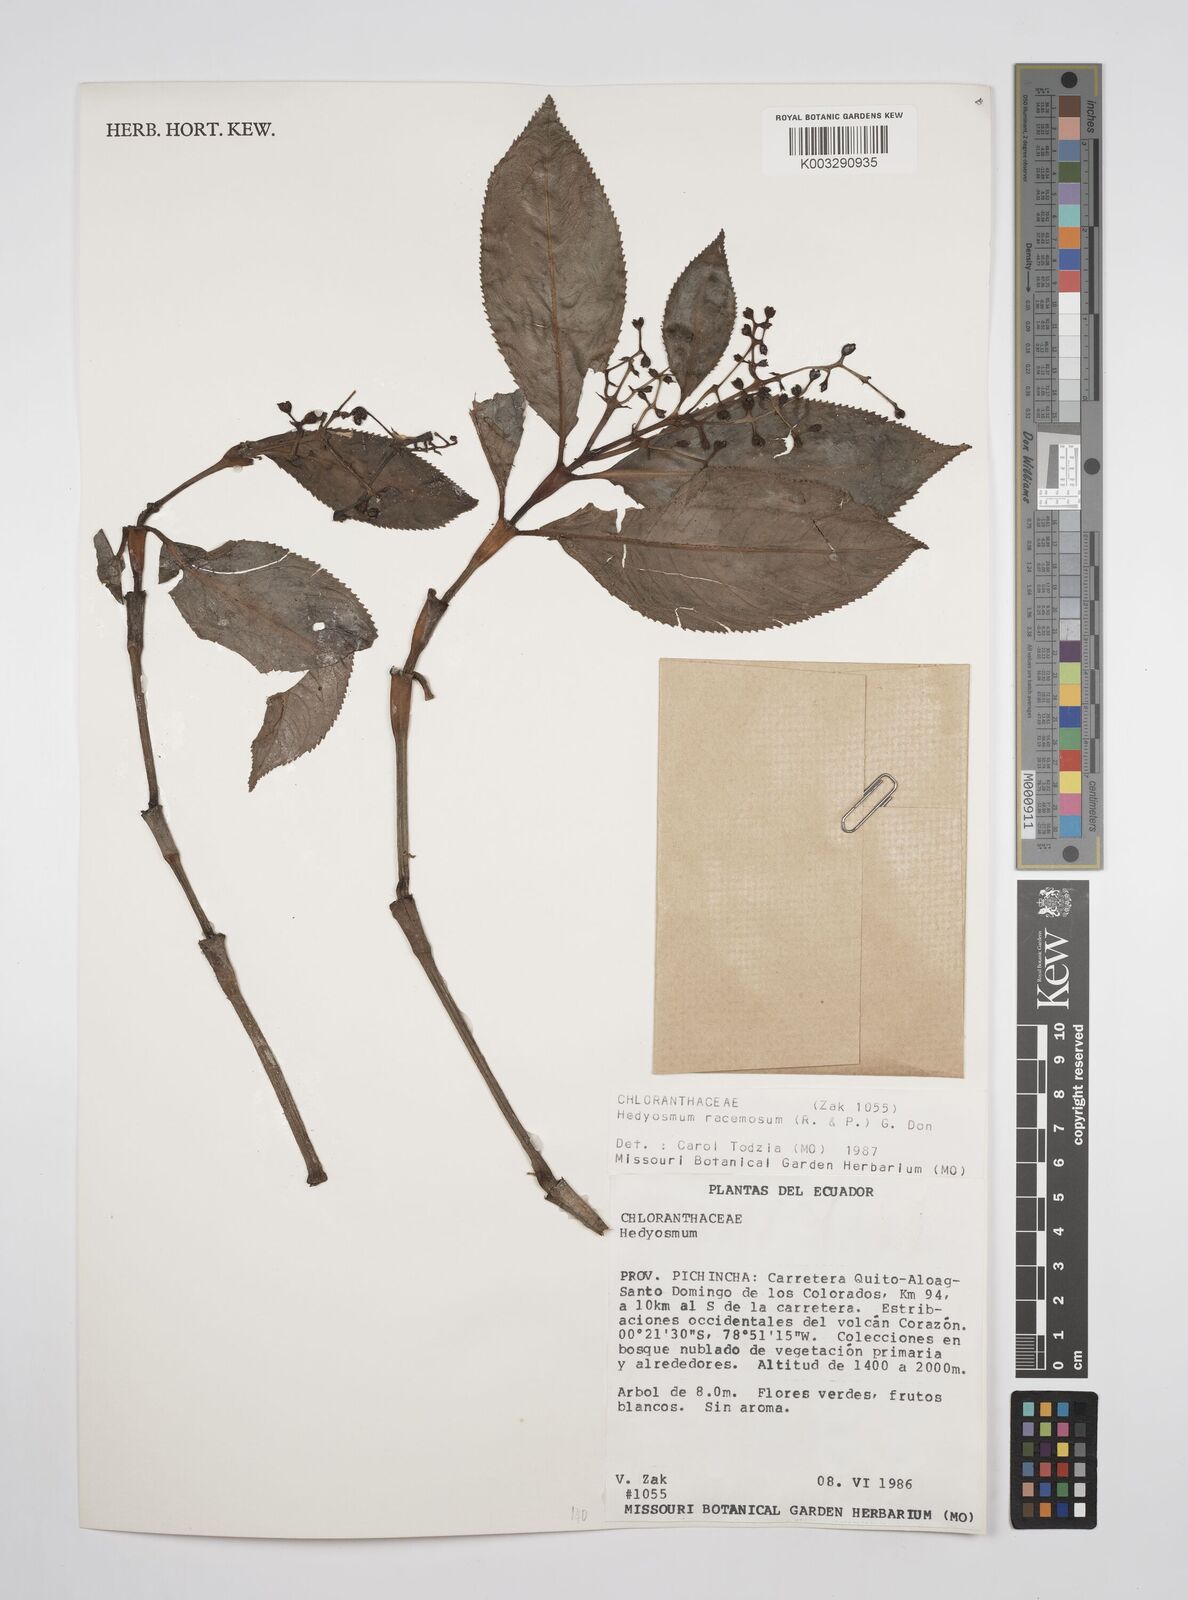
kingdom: Plantae
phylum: Tracheophyta
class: Magnoliopsida
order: Chloranthales
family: Chloranthaceae
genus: Hedyosmum
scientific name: Hedyosmum racemosum
